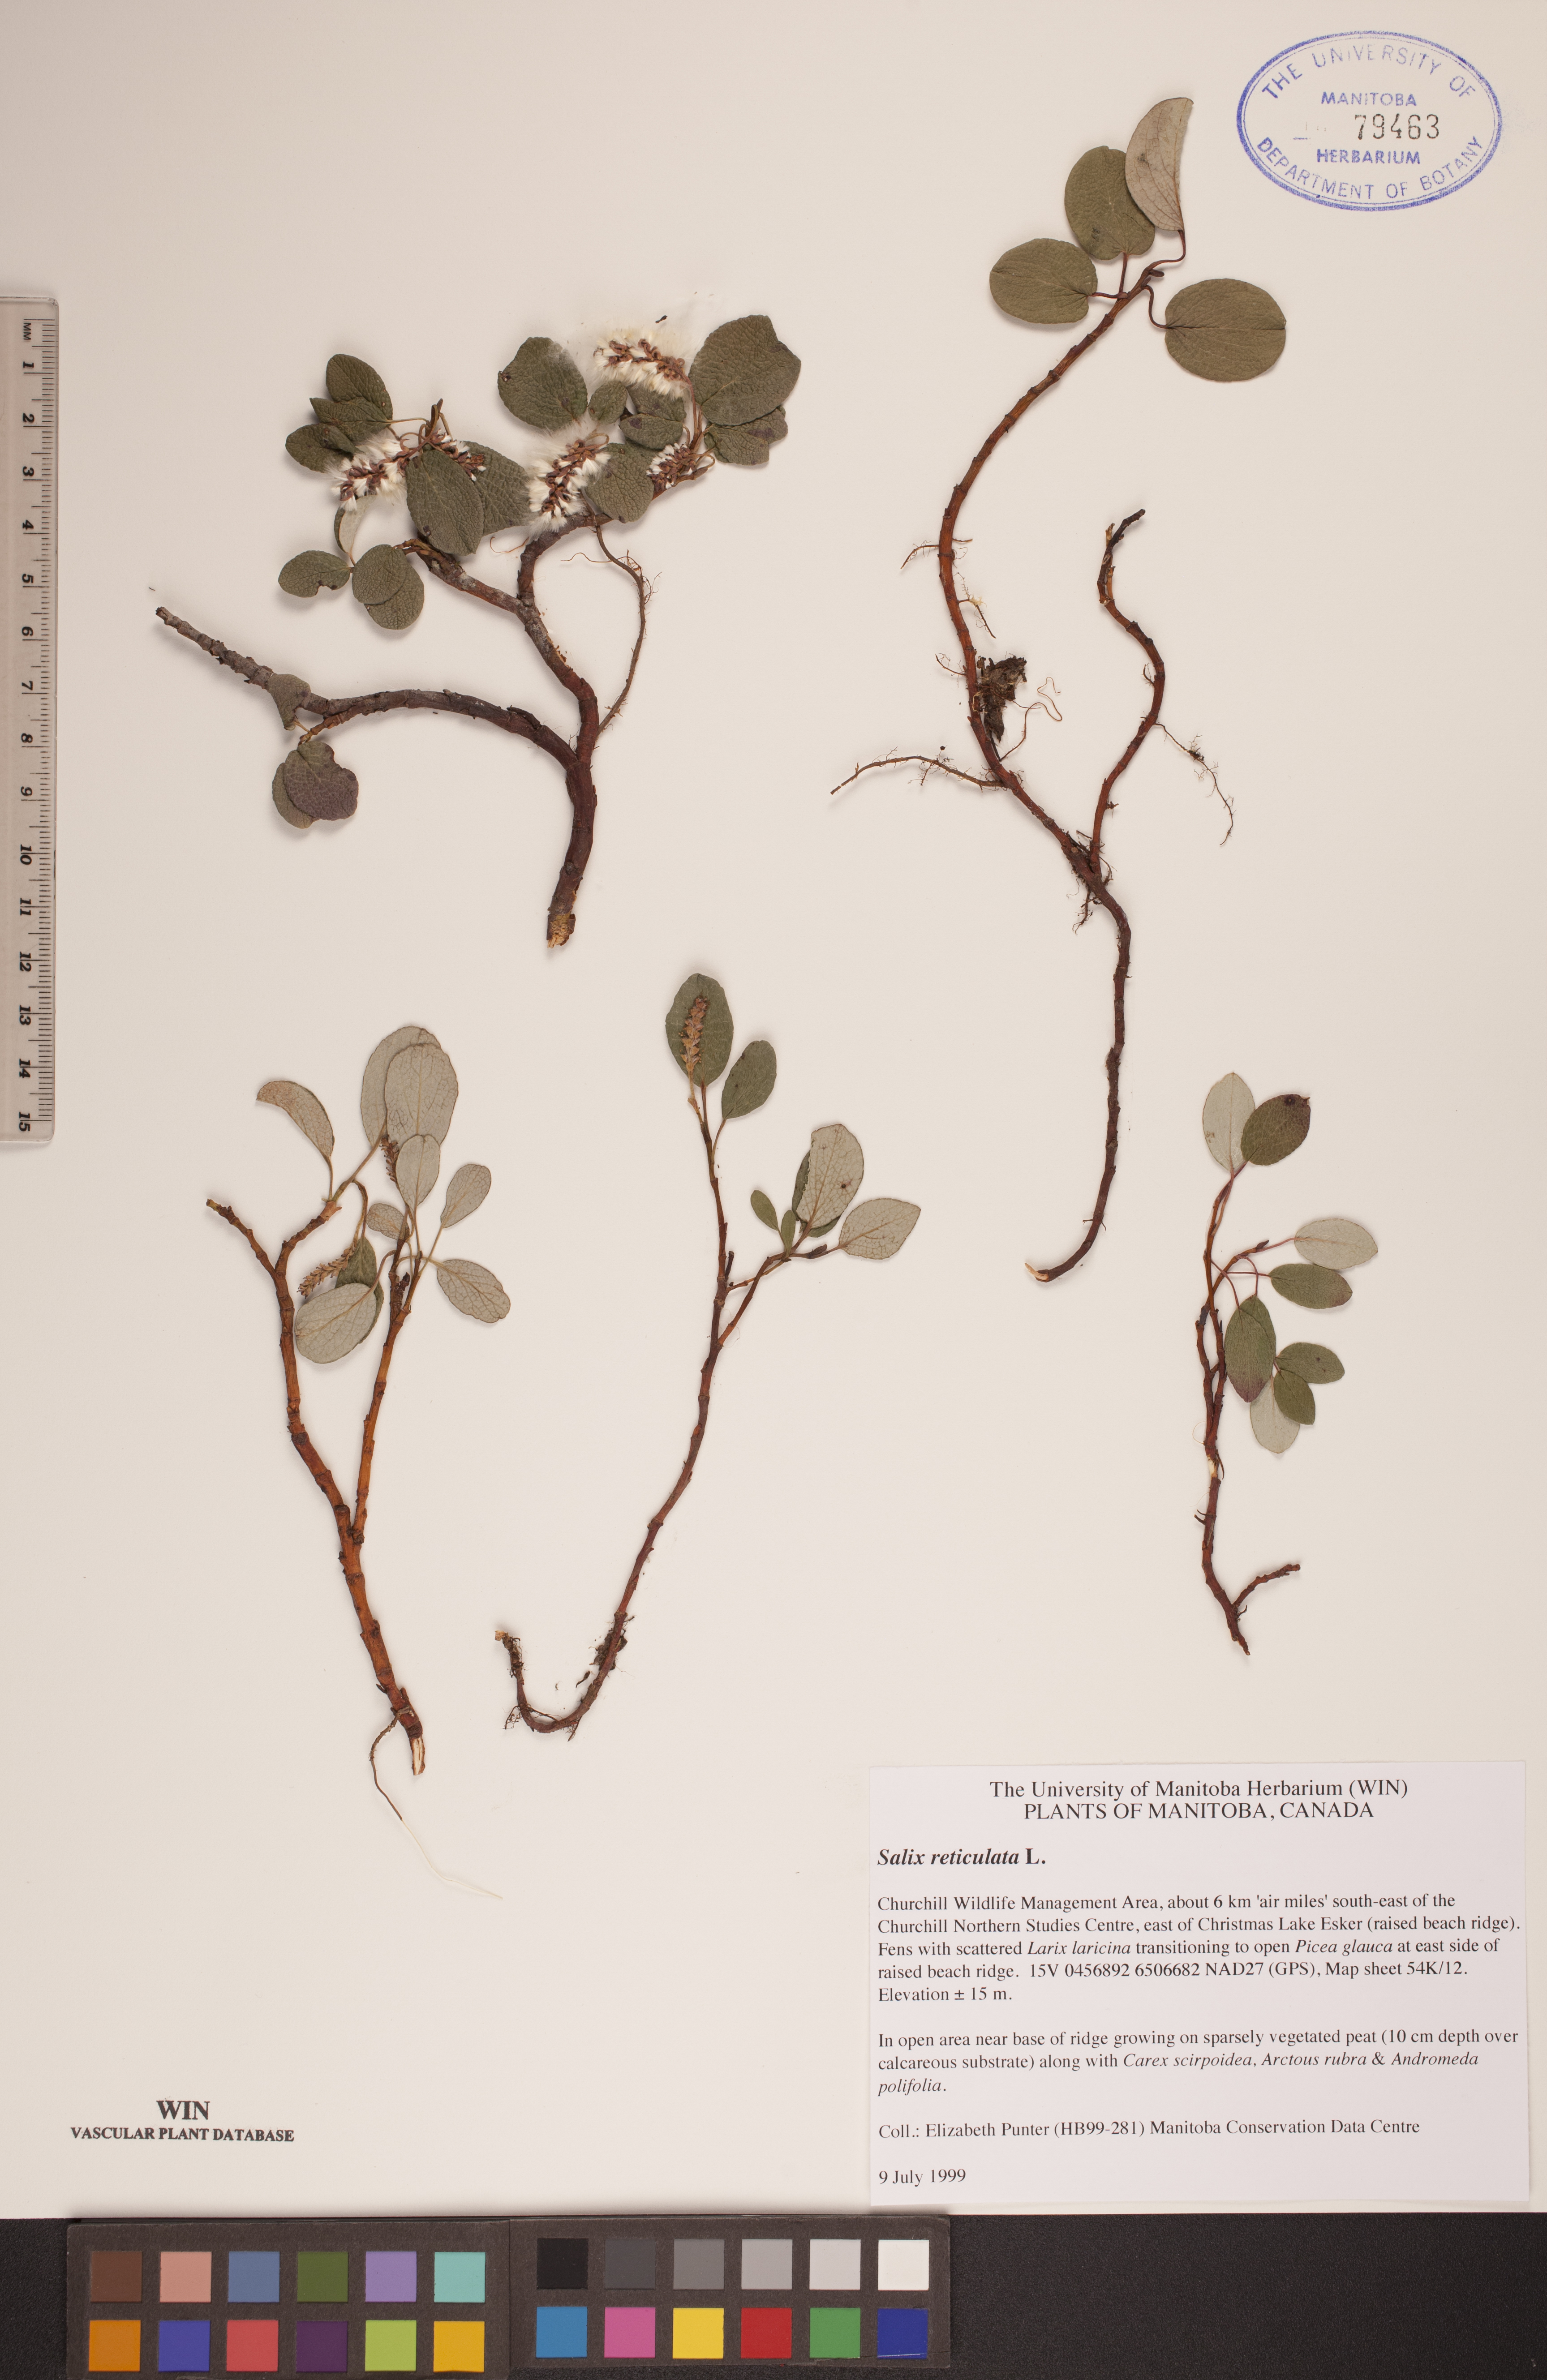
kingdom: Plantae
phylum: Tracheophyta
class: Magnoliopsida
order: Malpighiales
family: Salicaceae
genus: Salix
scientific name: Salix reticulata
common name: Net-leaved willow
